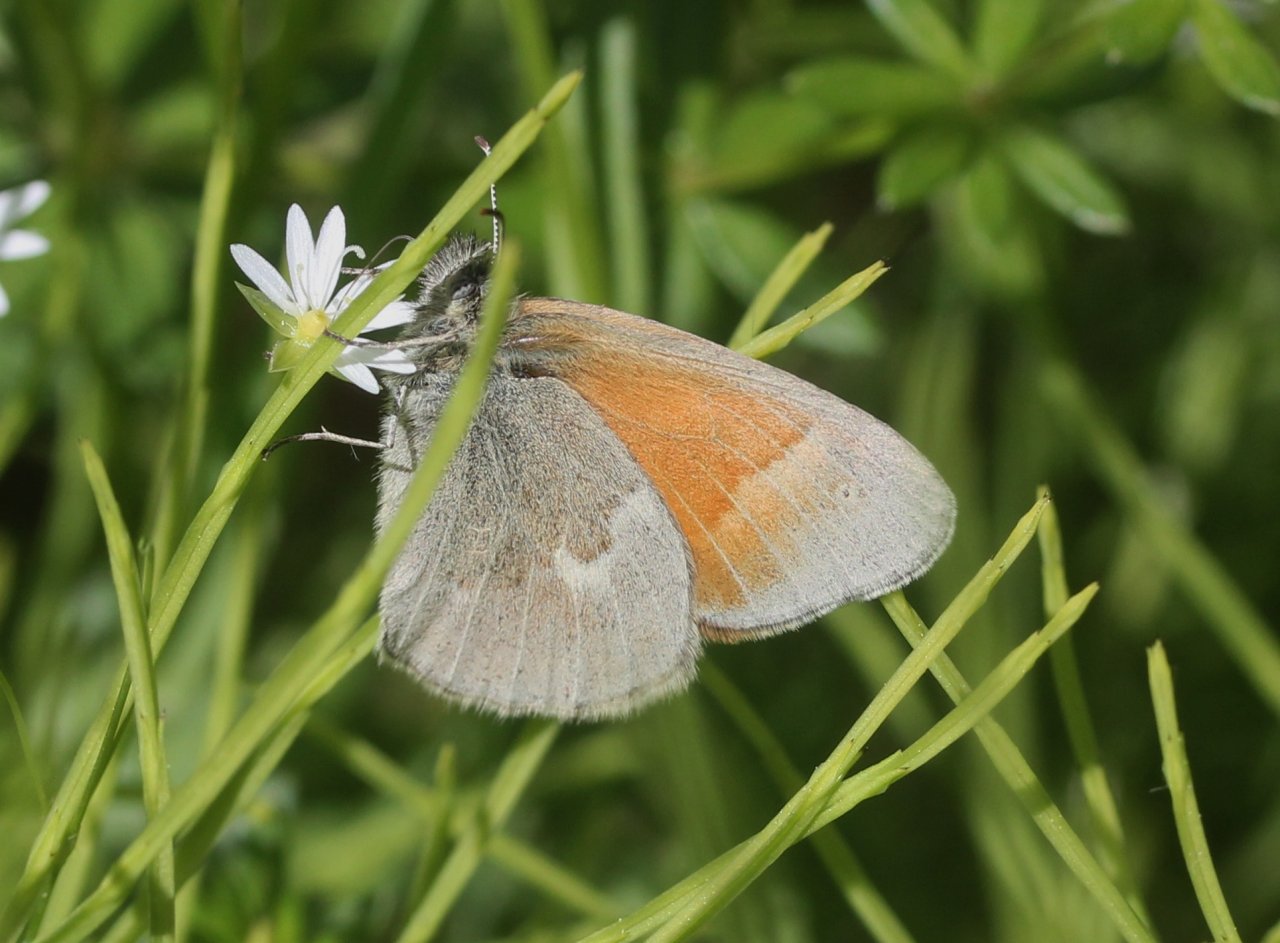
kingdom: Animalia
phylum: Arthropoda
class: Insecta
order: Lepidoptera
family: Nymphalidae
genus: Coenonympha
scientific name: Coenonympha tullia
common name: Large Heath
